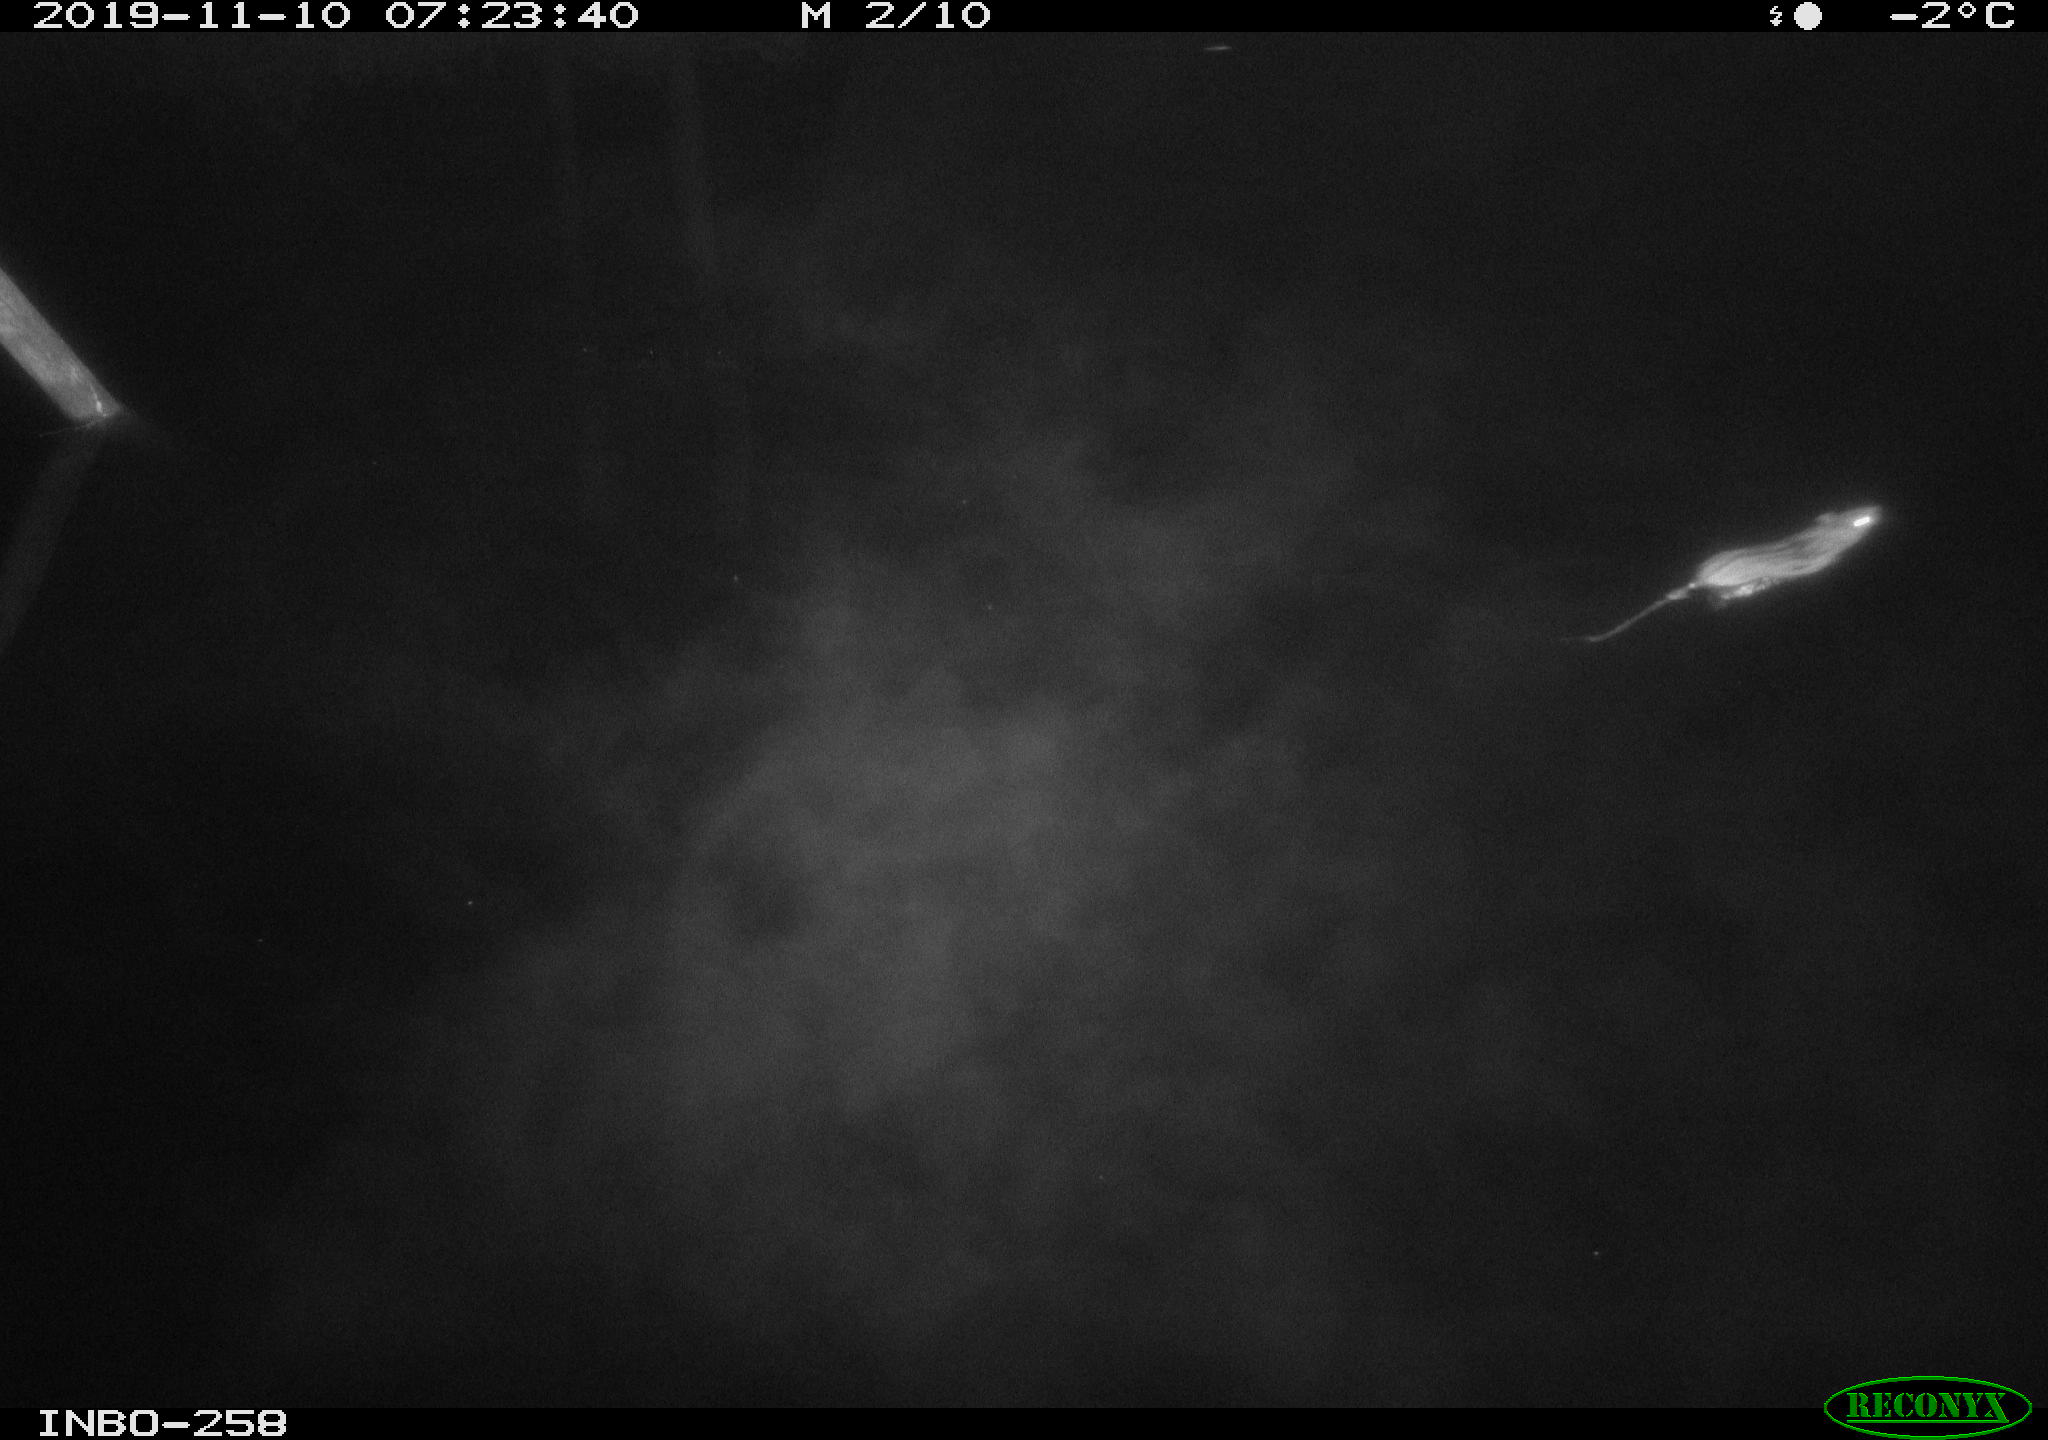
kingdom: Animalia
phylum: Chordata
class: Mammalia
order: Rodentia
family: Muridae
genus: Rattus
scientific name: Rattus norvegicus
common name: Brown rat
